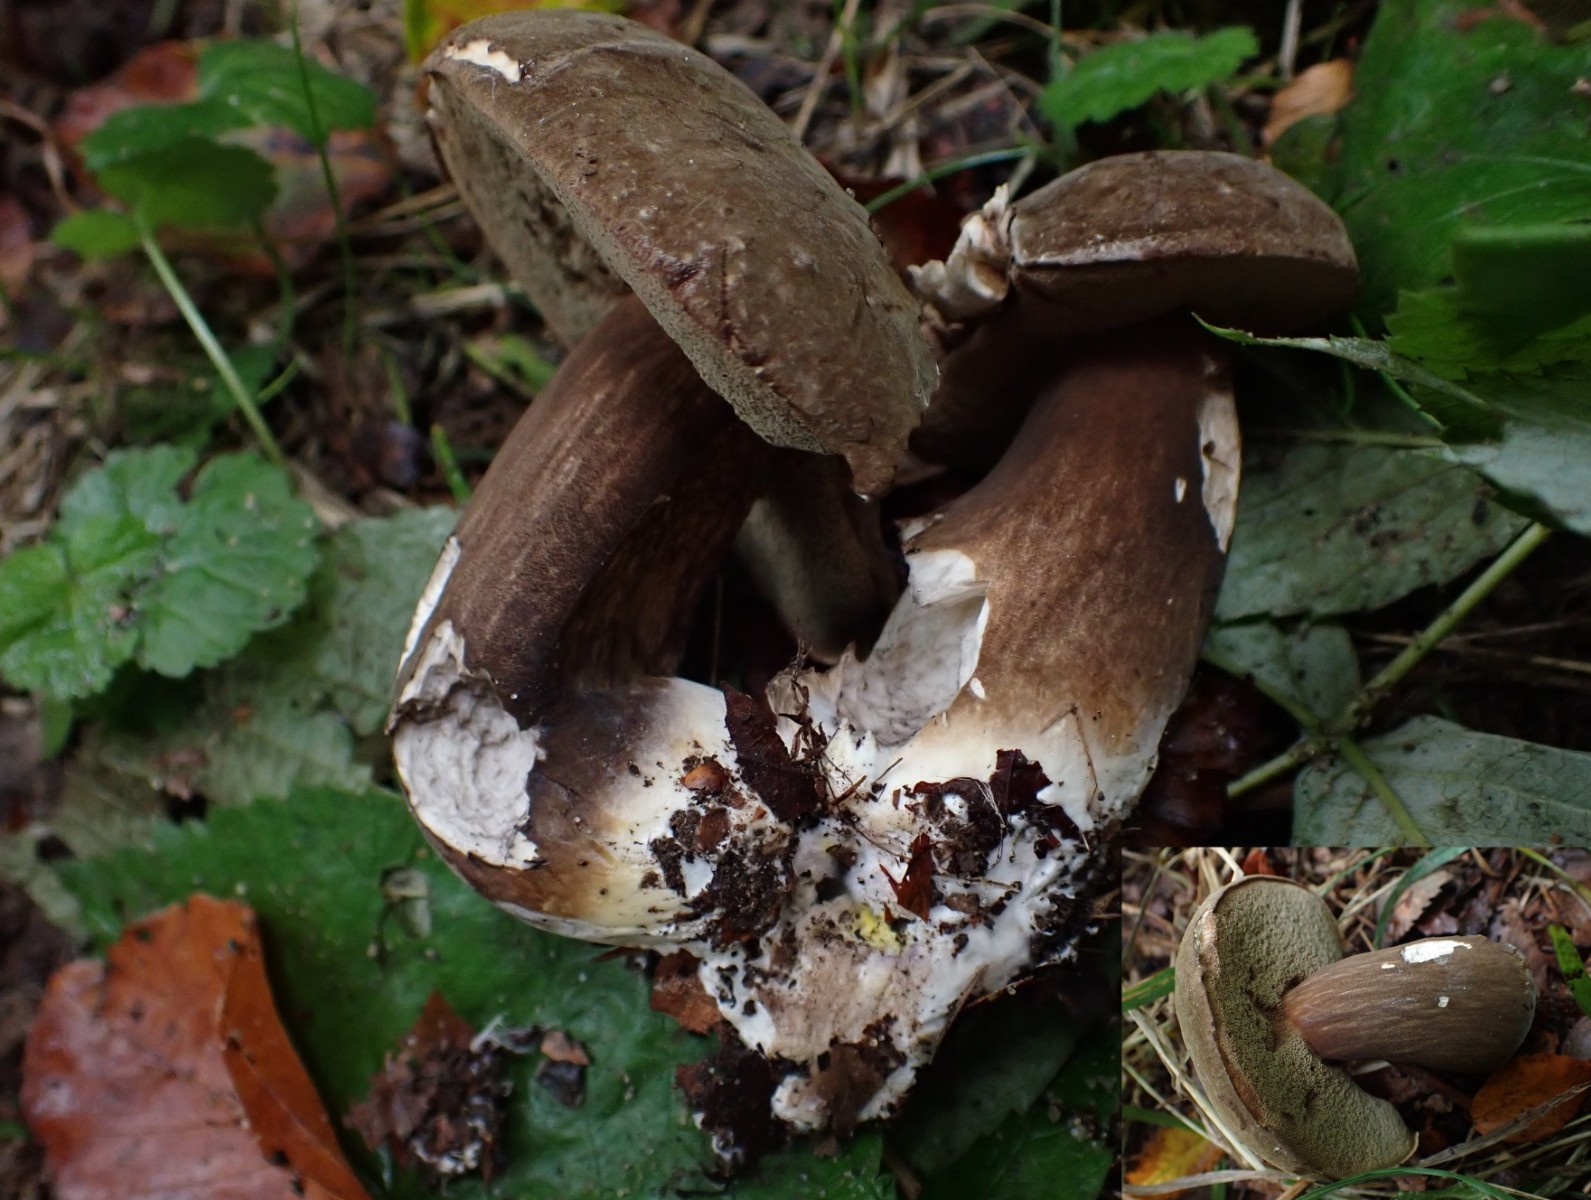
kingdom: Fungi
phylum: Basidiomycota
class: Agaricomycetes
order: Boletales
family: Boletaceae
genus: Porphyrellus
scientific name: Porphyrellus porphyrosporus
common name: sodrørhat
